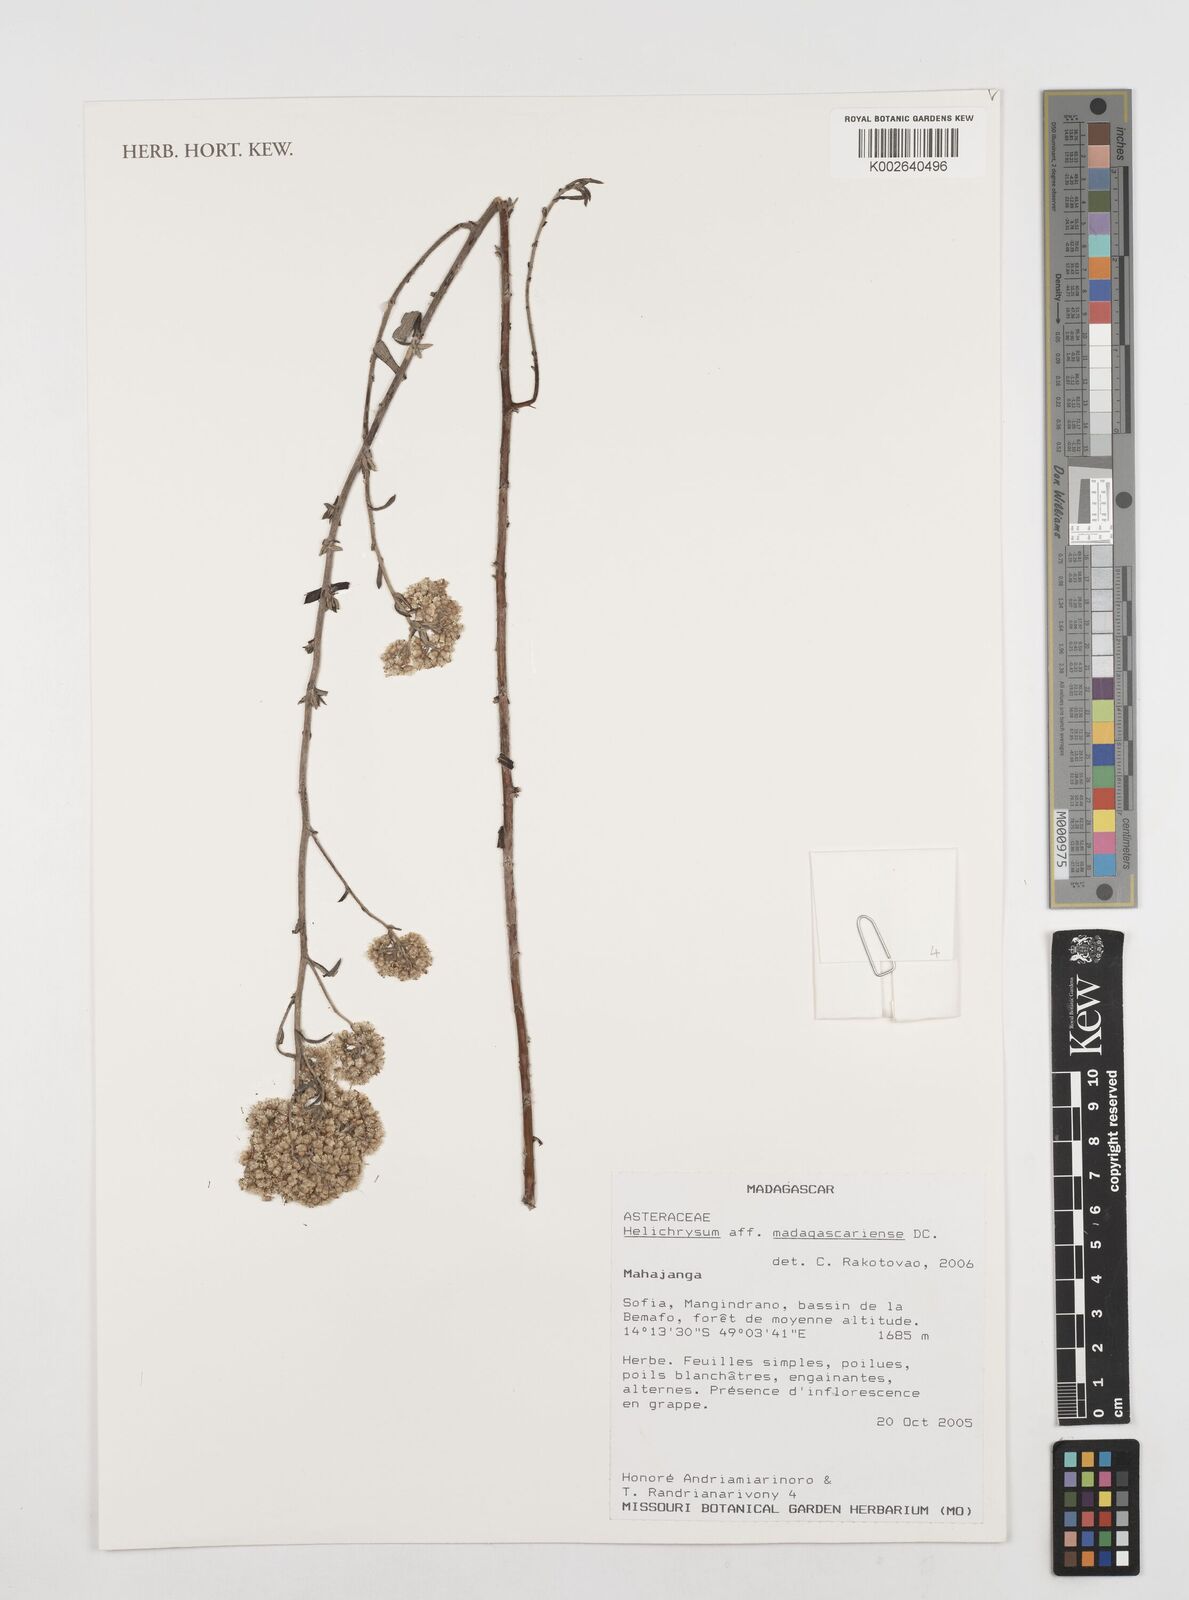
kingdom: Plantae
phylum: Tracheophyta
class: Magnoliopsida
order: Asterales
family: Asteraceae
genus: Helichrysum
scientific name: Helichrysum madagascariense
